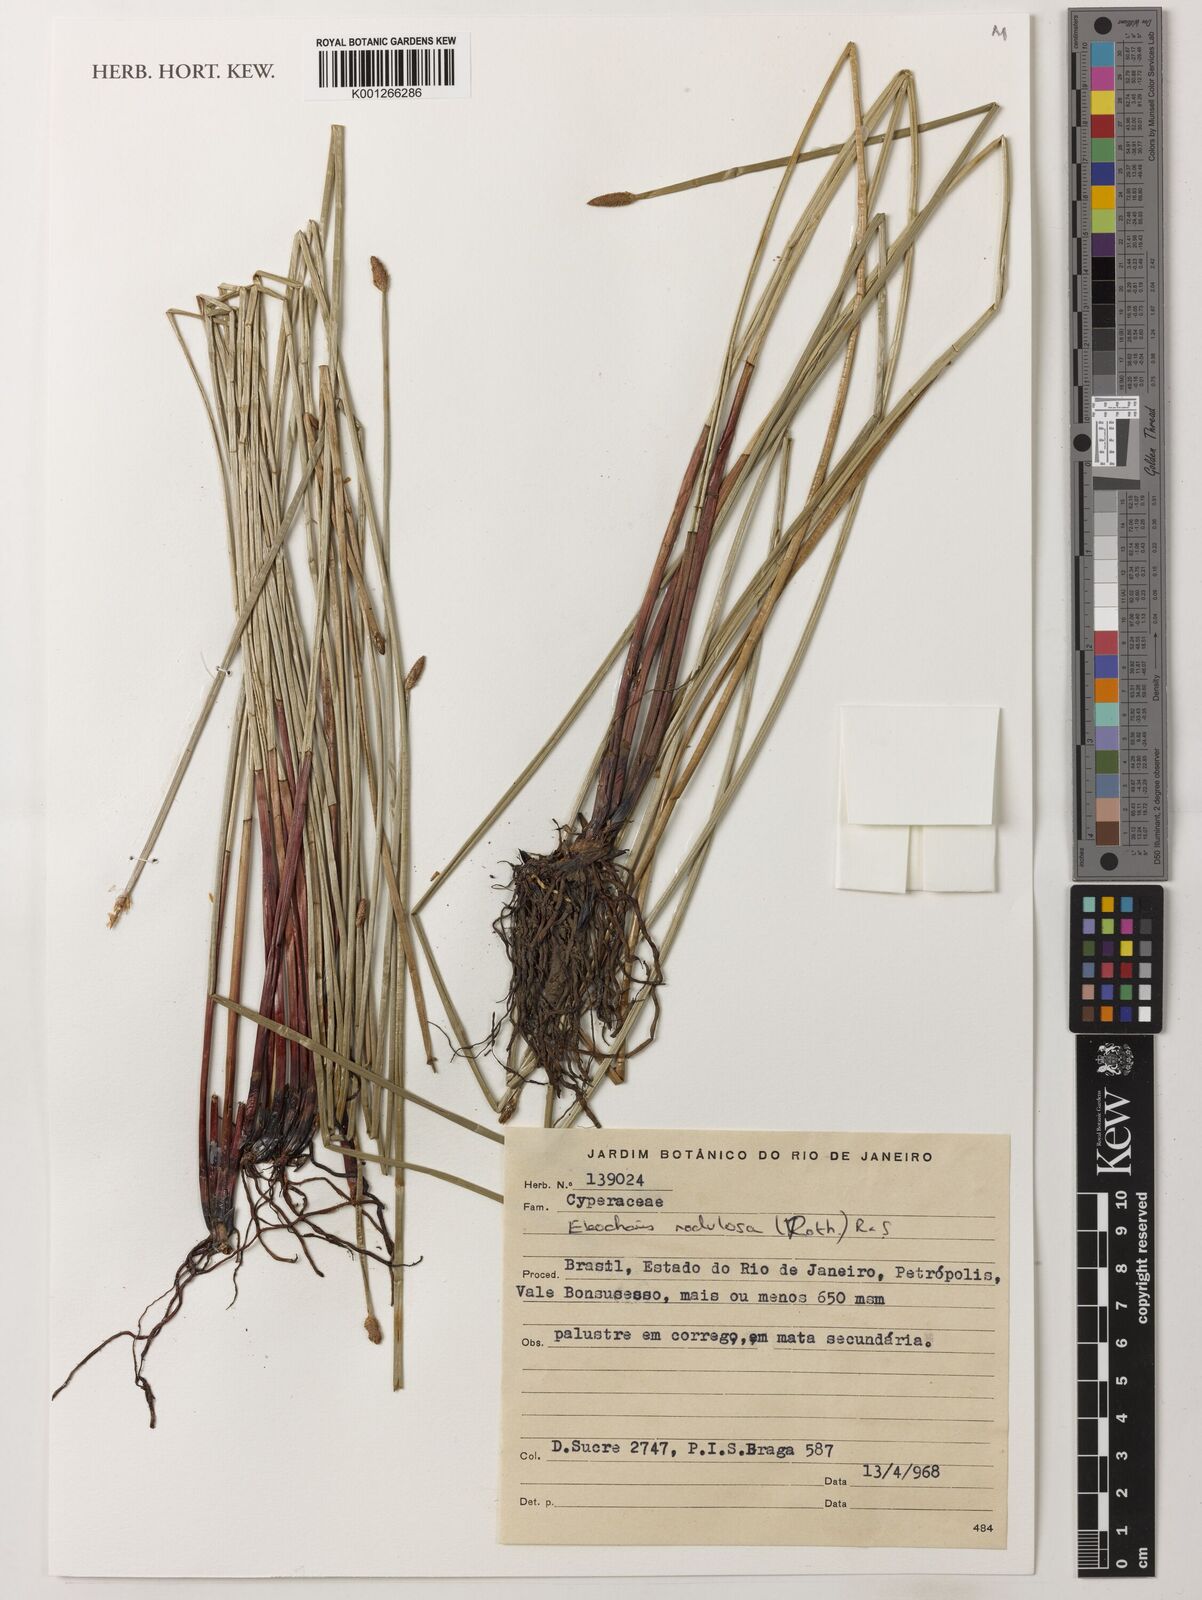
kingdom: Plantae
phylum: Tracheophyta
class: Liliopsida
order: Poales
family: Cyperaceae
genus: Eleocharis
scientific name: Eleocharis montana
